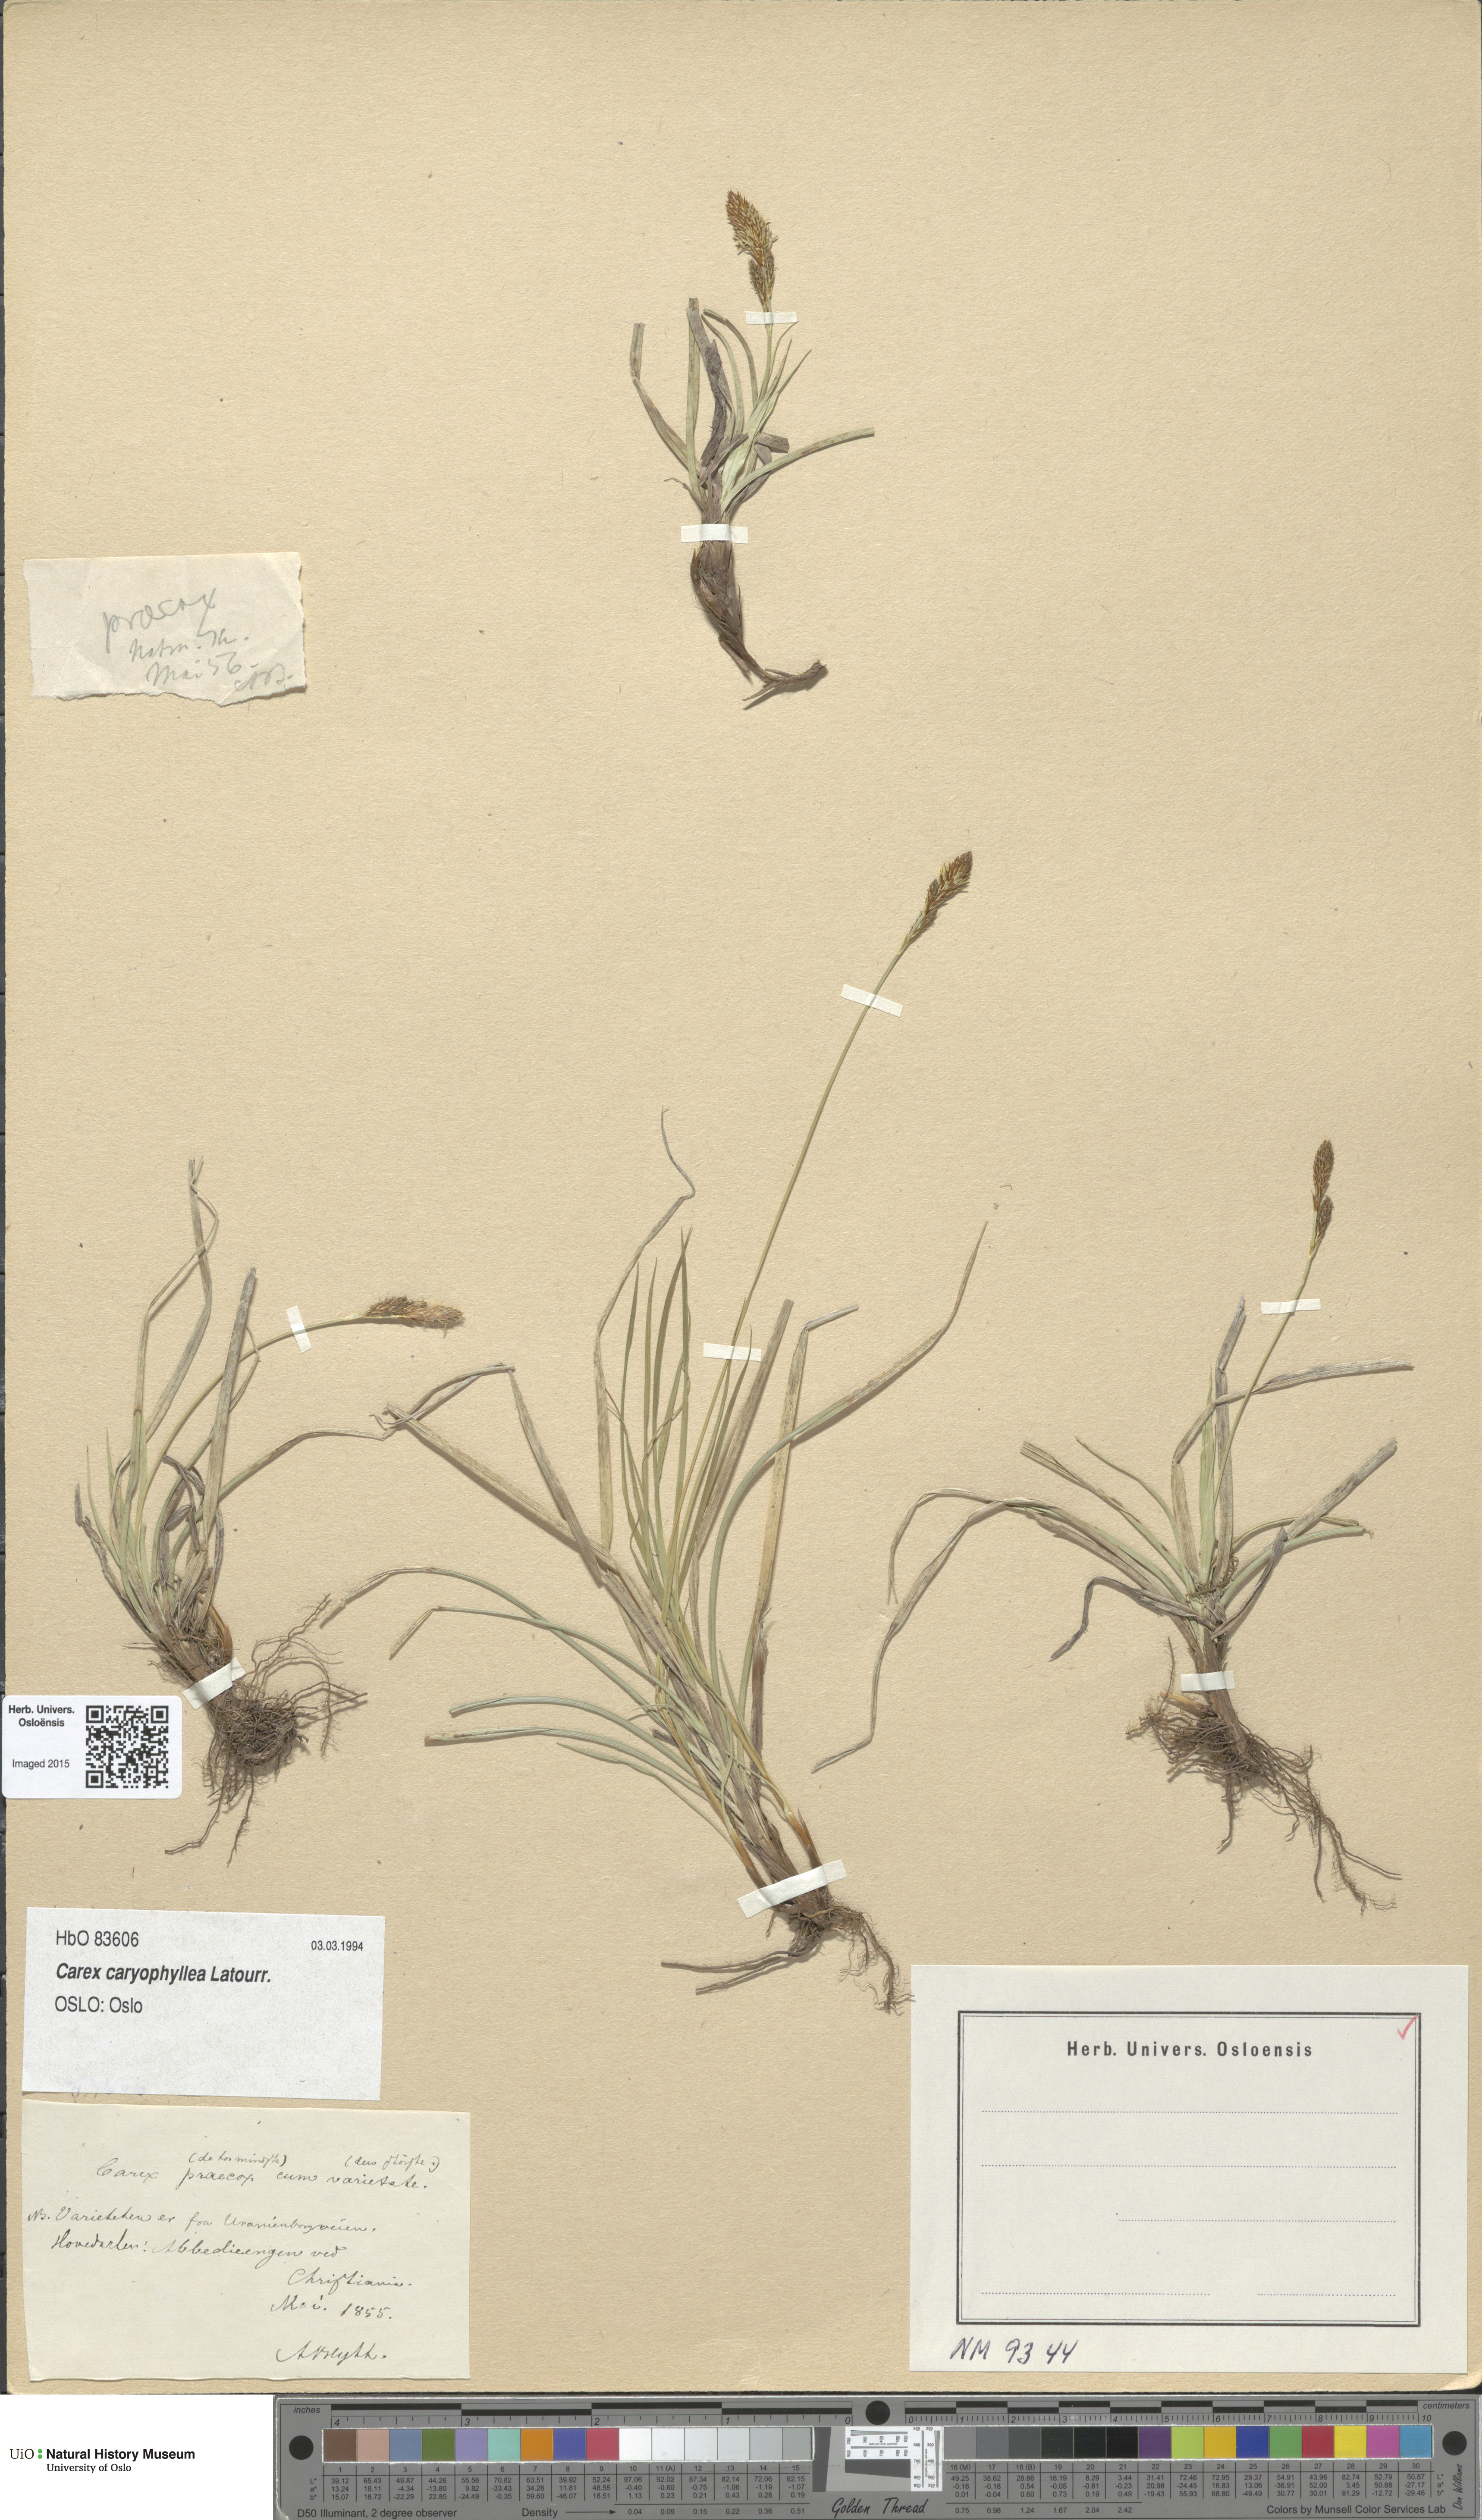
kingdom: Plantae
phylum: Tracheophyta
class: Liliopsida
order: Poales
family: Cyperaceae
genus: Carex
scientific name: Carex caryophyllea
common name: Spring sedge
